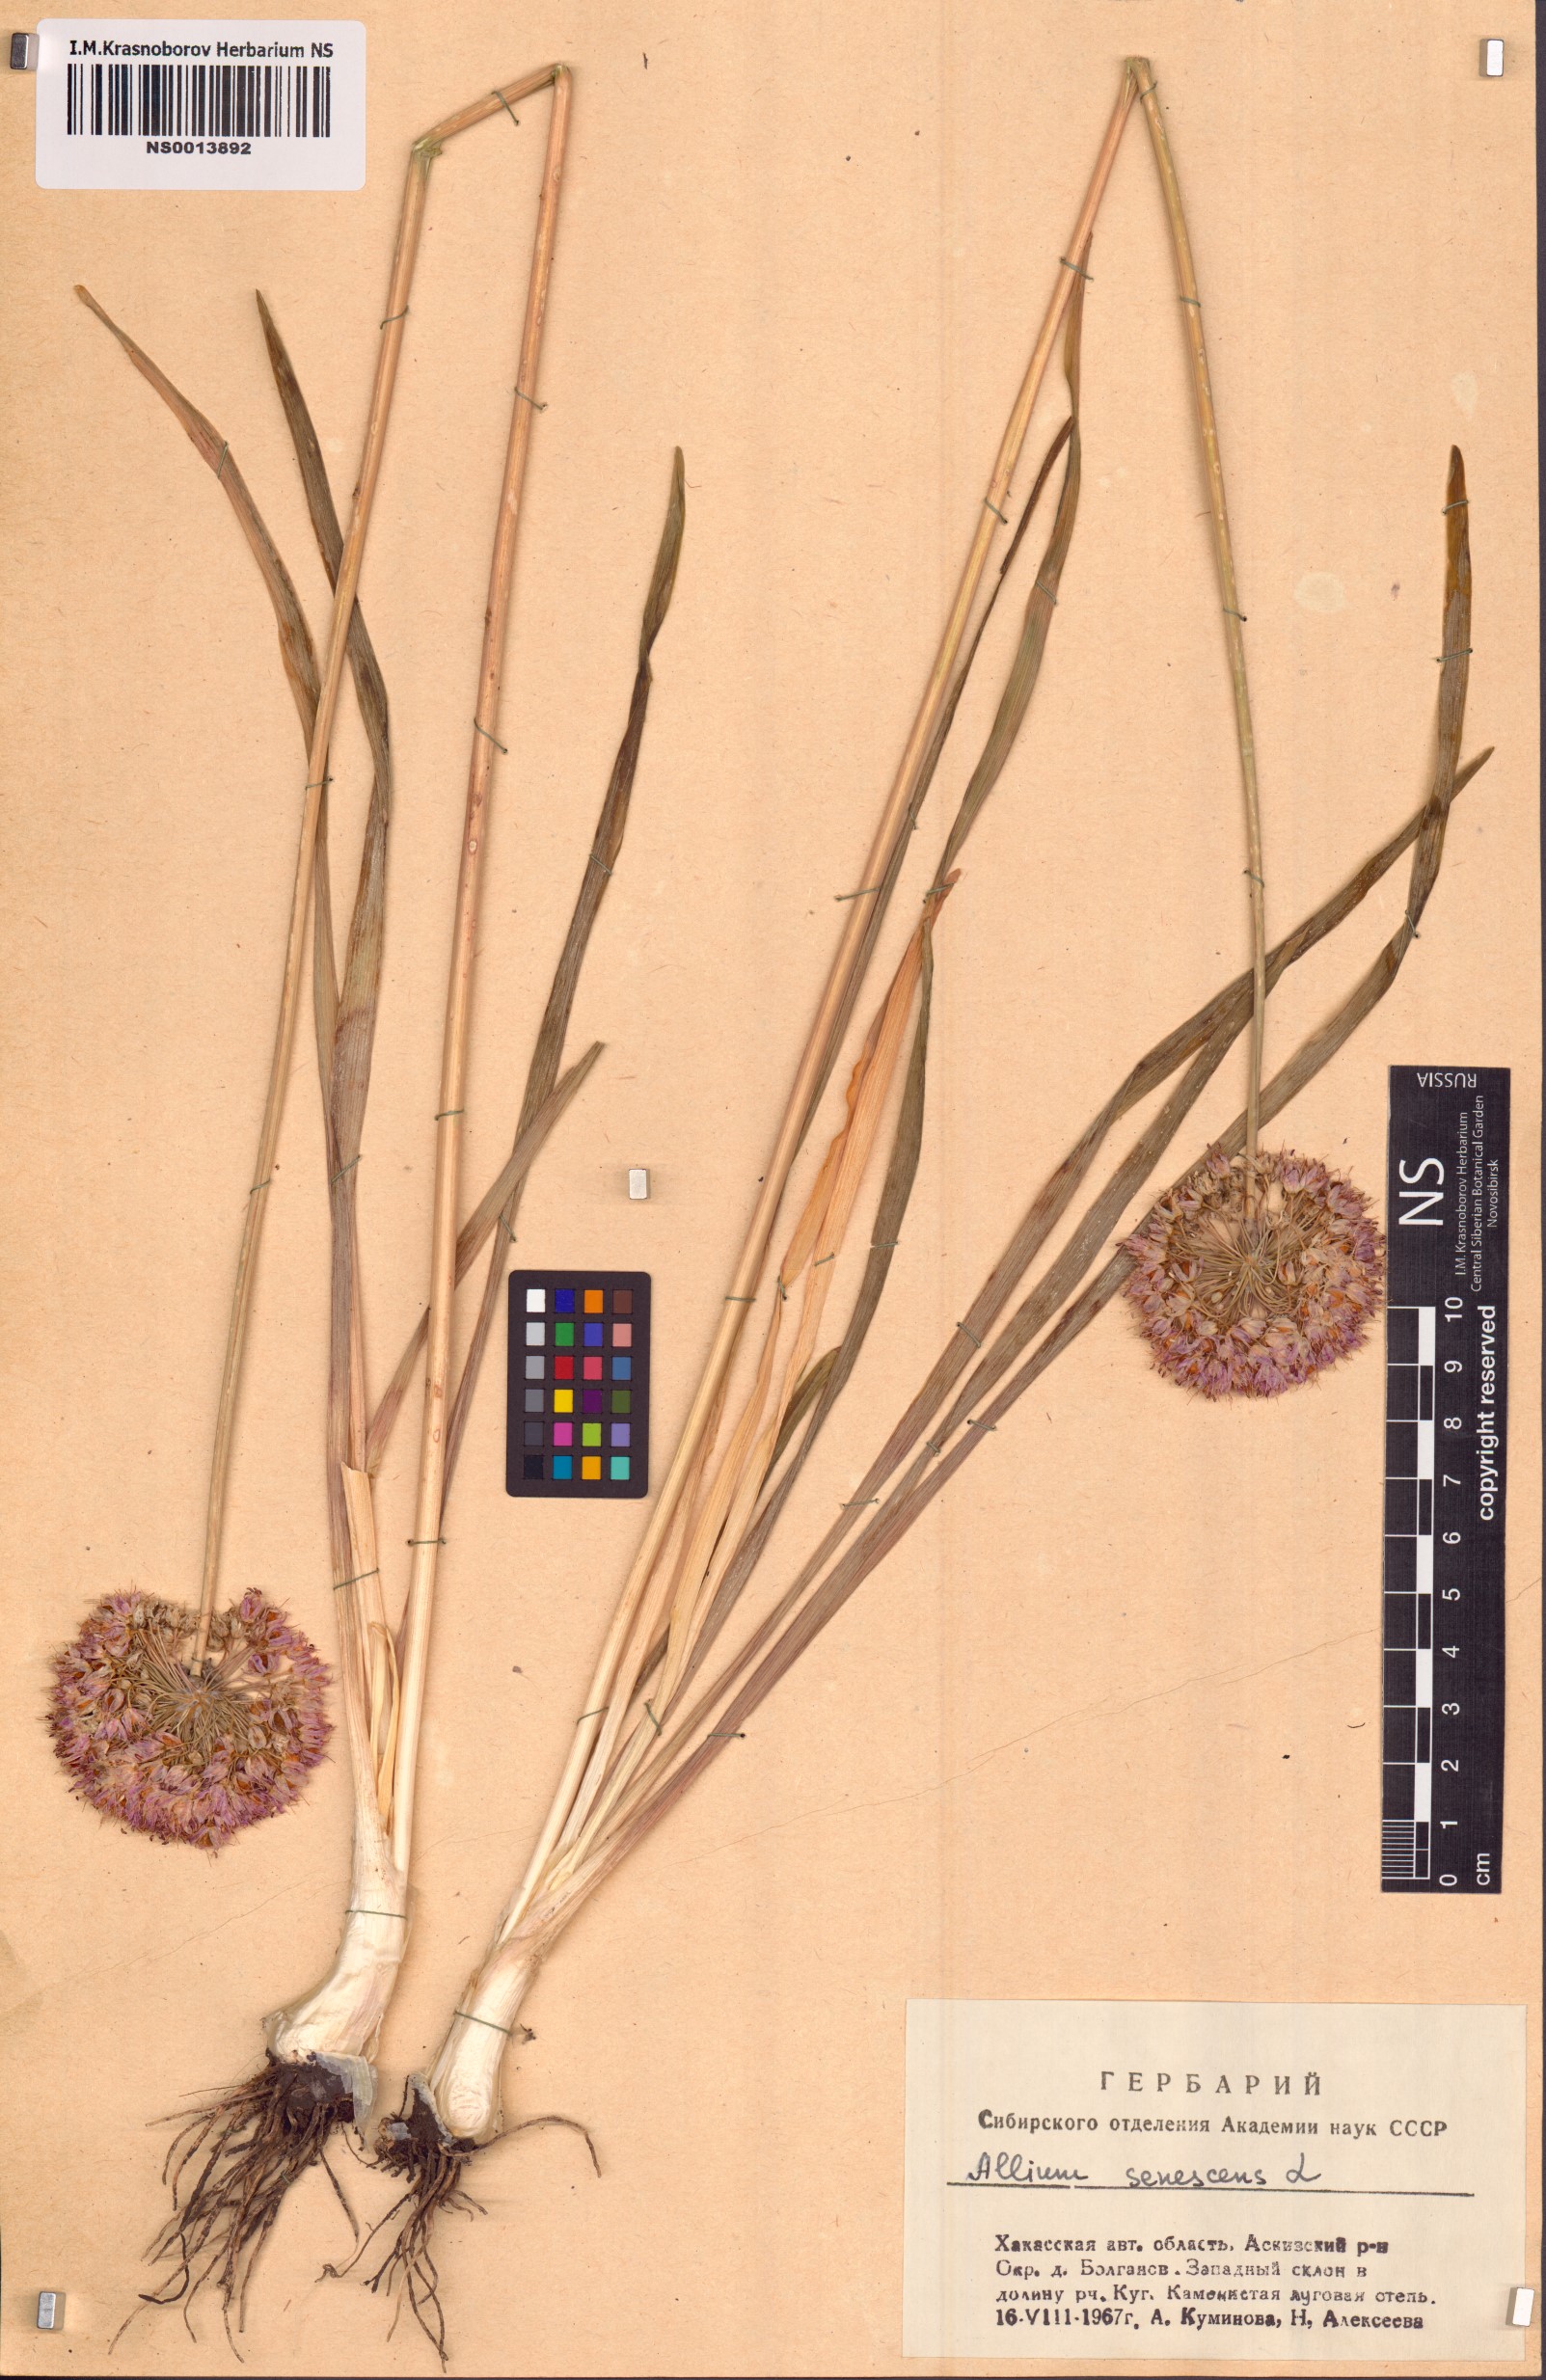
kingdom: Plantae
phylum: Tracheophyta
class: Liliopsida
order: Asparagales
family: Amaryllidaceae
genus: Allium
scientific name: Allium senescens
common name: German garlic
